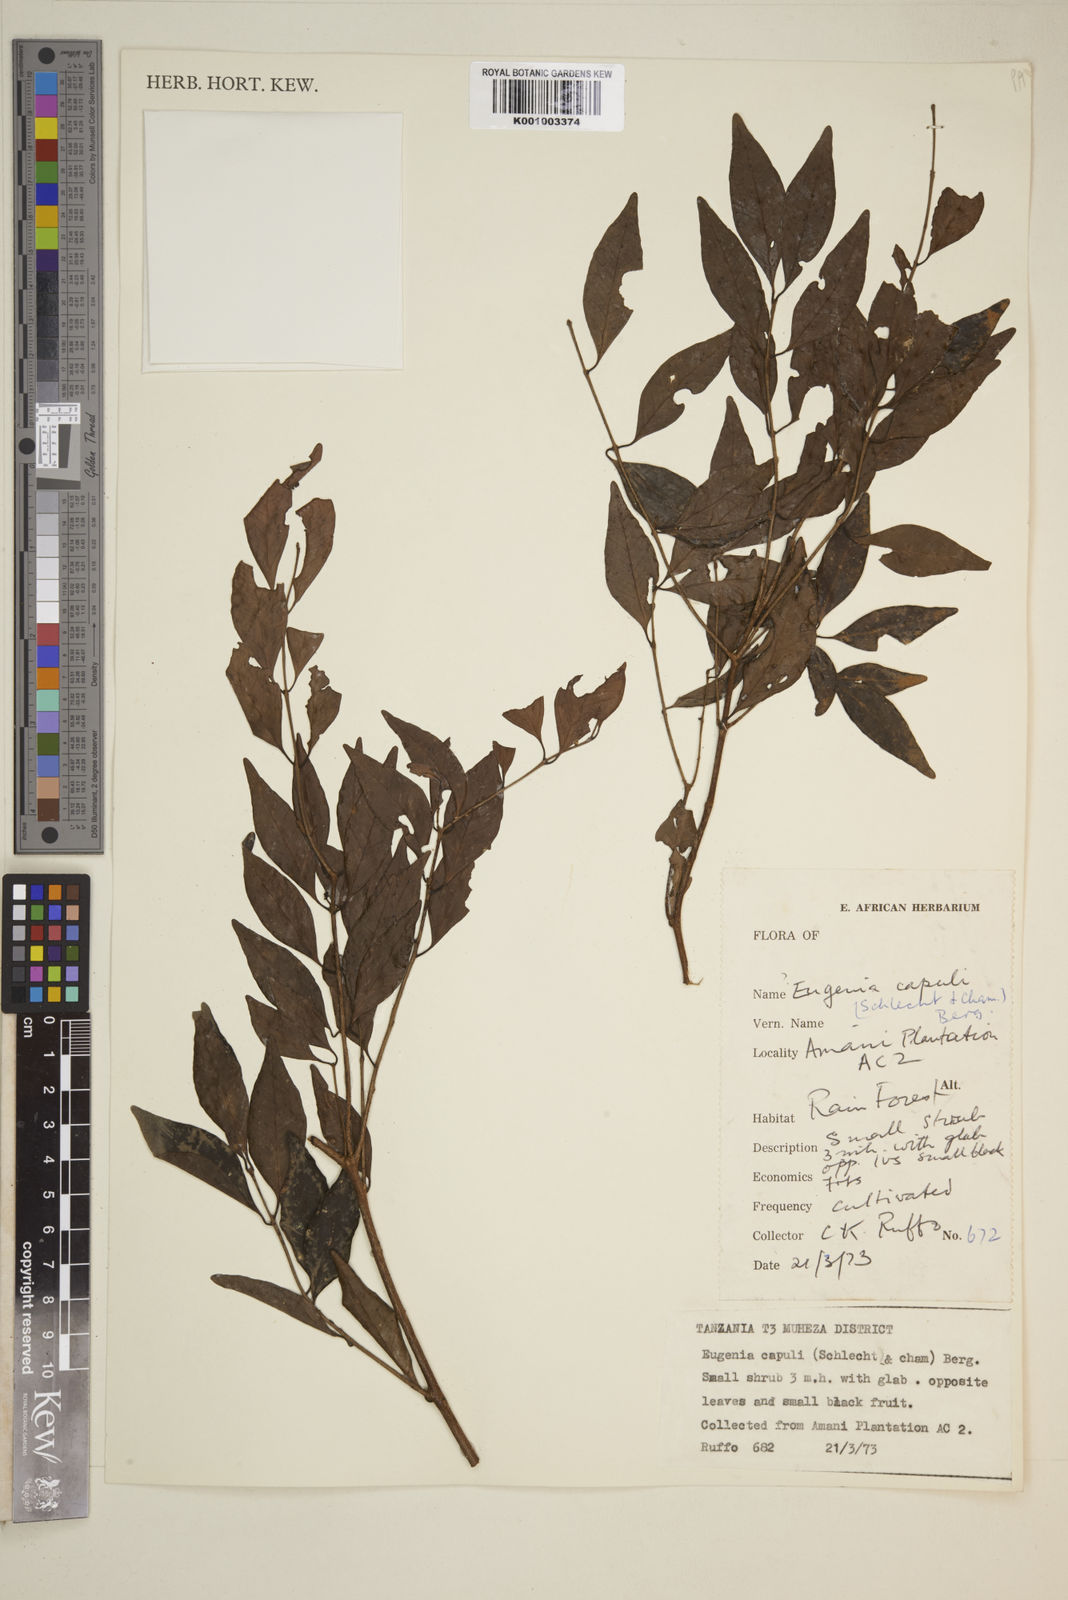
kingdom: Plantae
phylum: Tracheophyta
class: Magnoliopsida
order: Myrtales
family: Myrtaceae
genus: Eugenia
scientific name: Eugenia capuli
